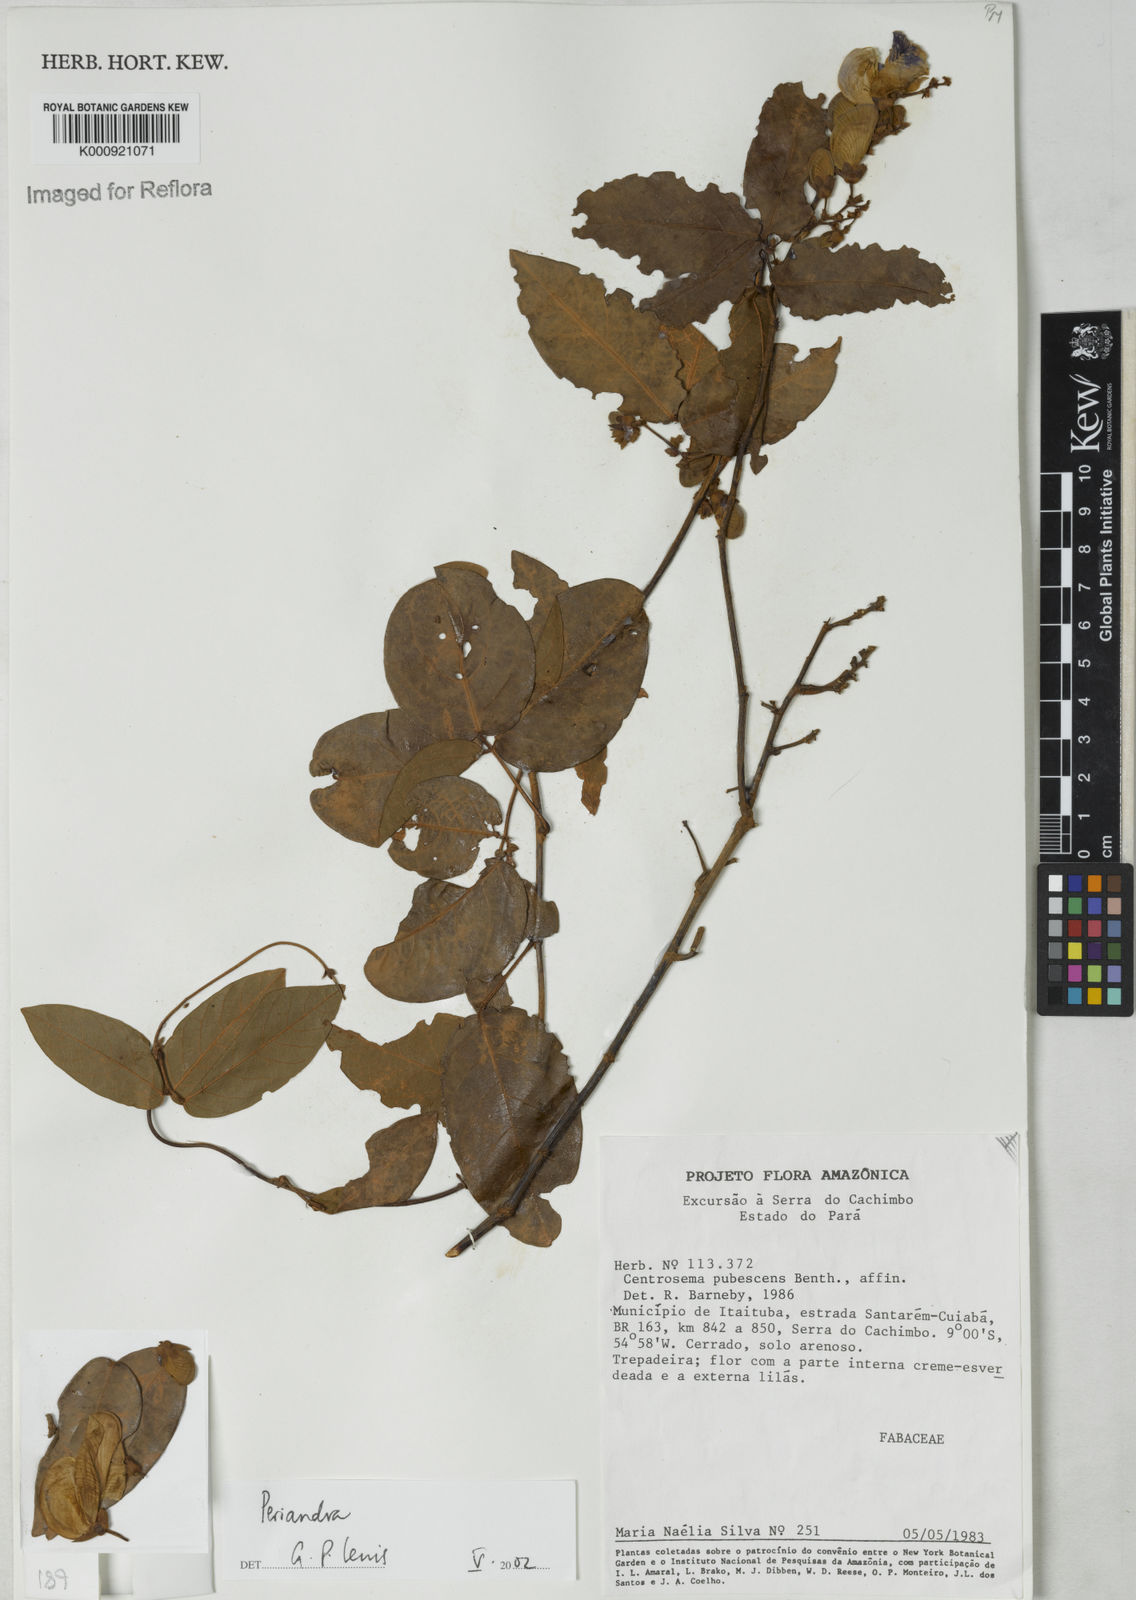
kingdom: Plantae
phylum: Tracheophyta
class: Magnoliopsida
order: Fabales
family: Fabaceae
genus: Periandra
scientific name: Periandra
